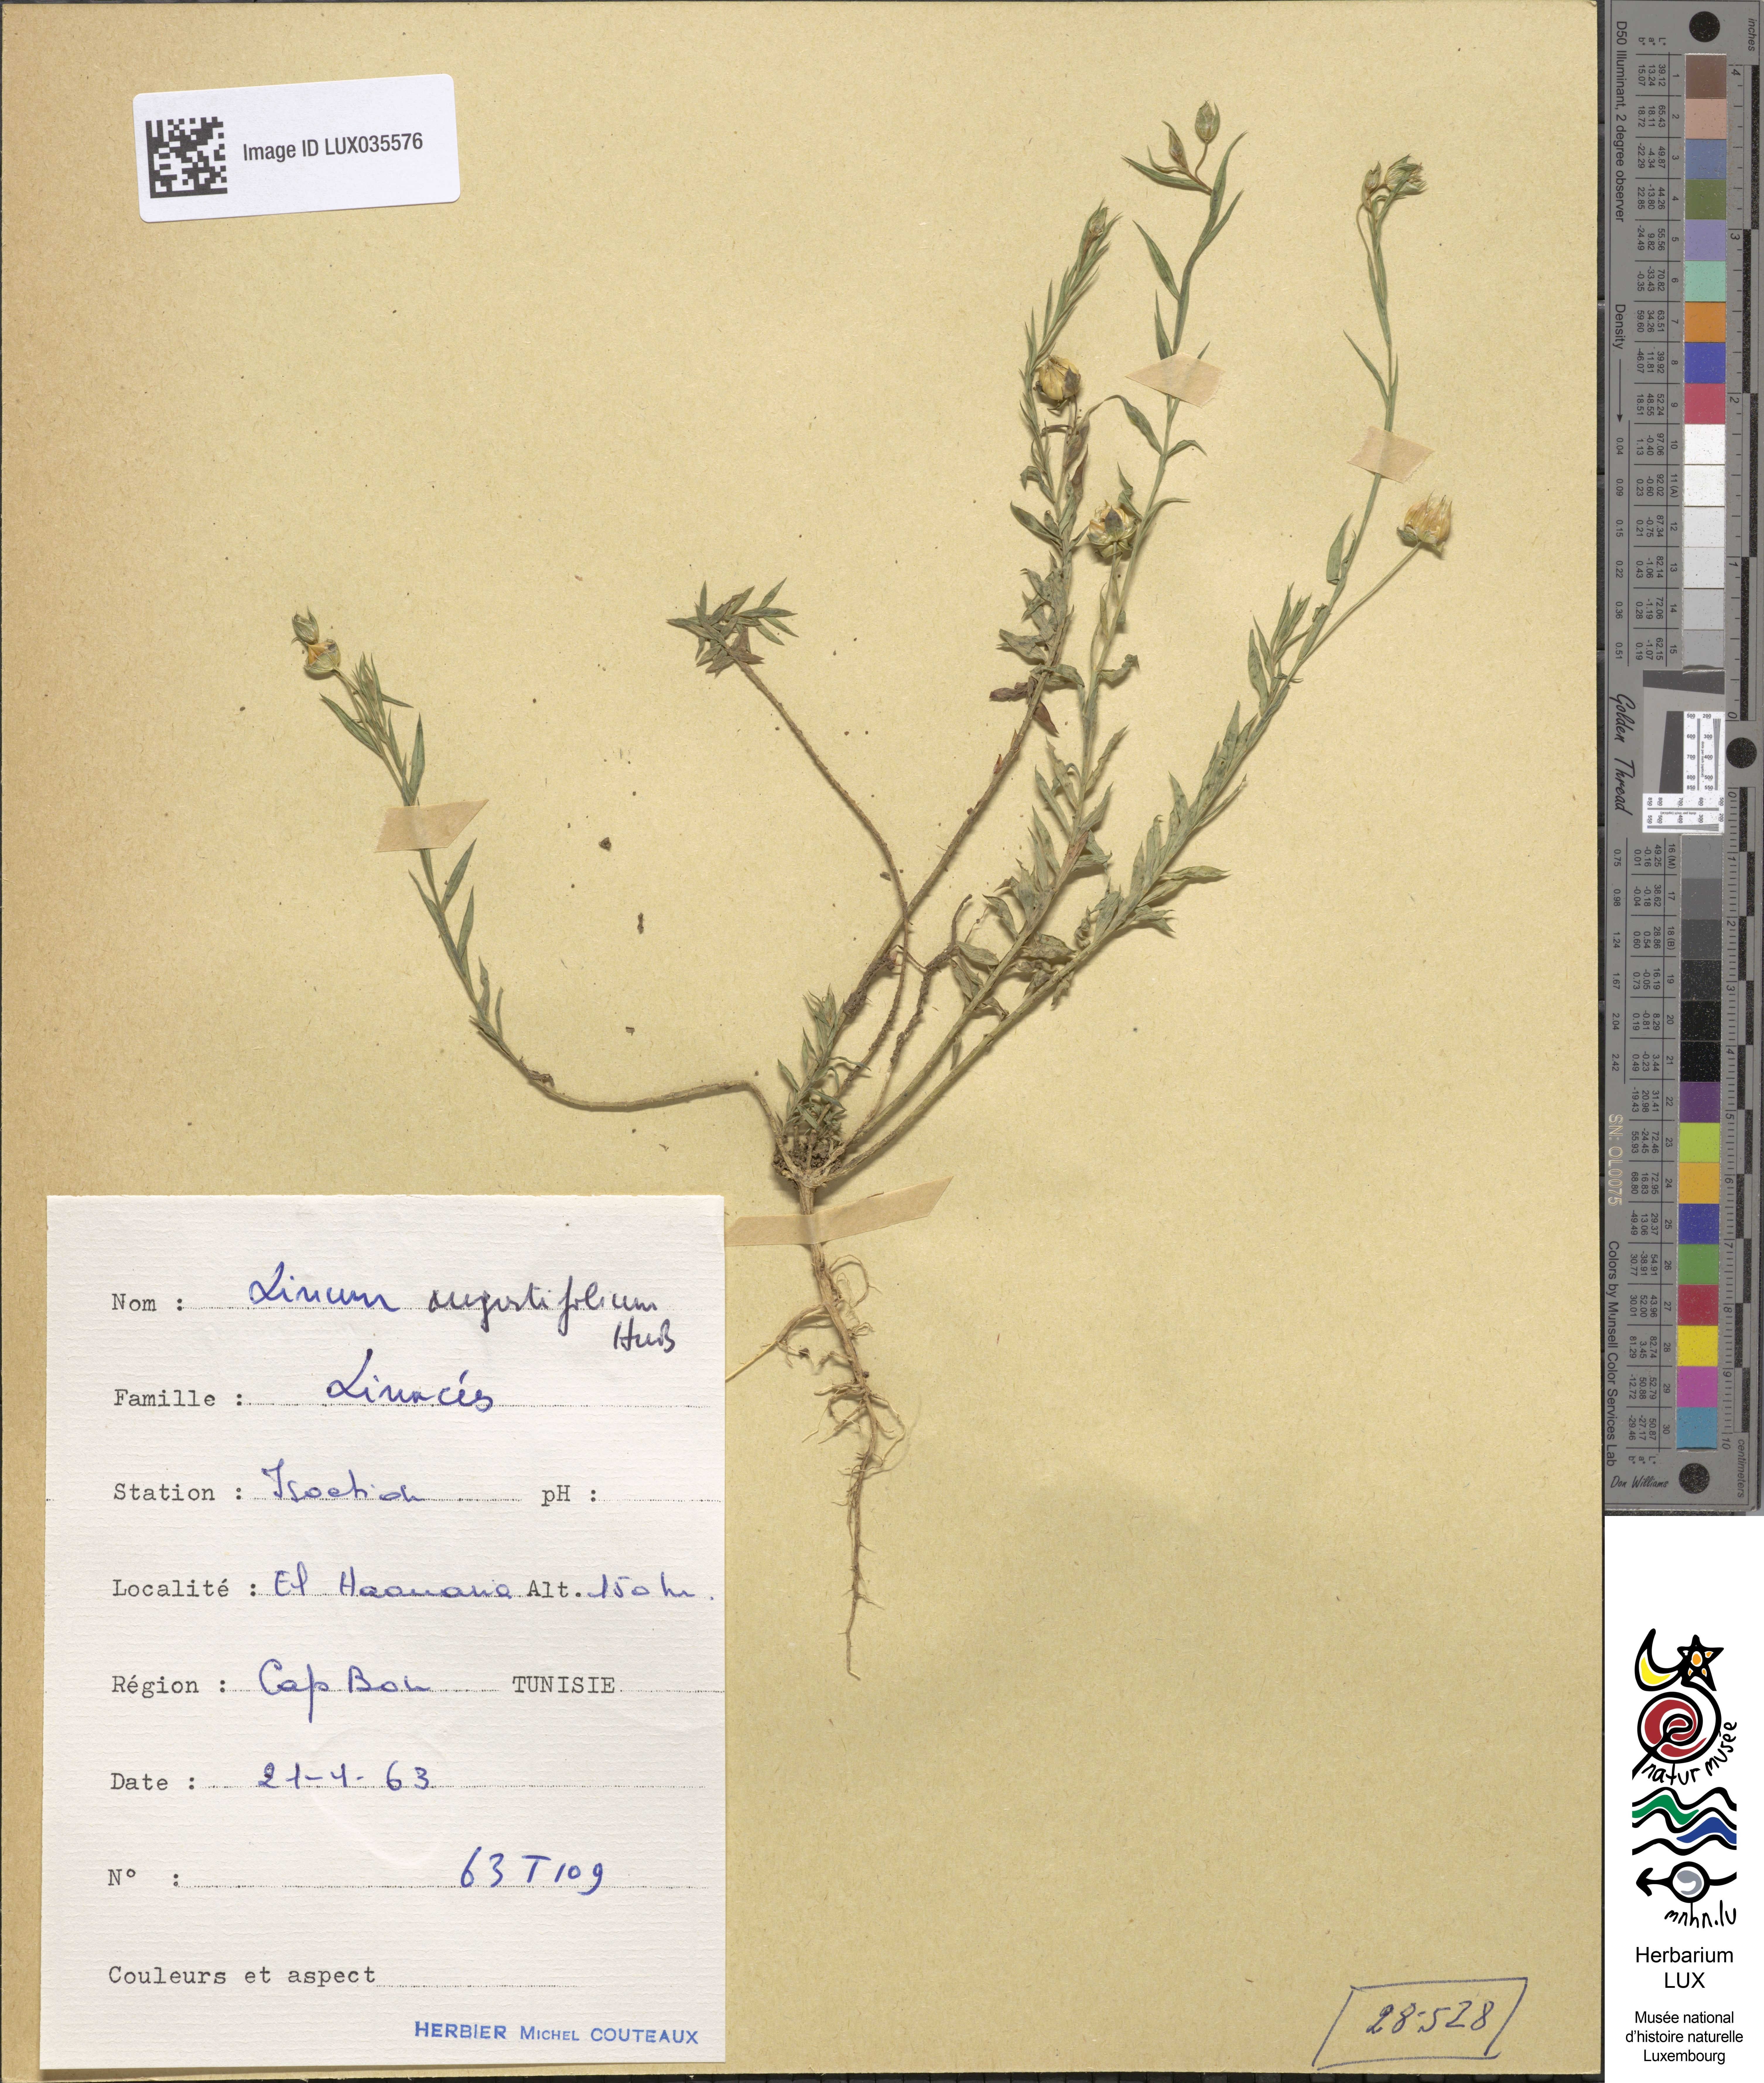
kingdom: Plantae
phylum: Tracheophyta
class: Magnoliopsida
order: Malpighiales
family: Linaceae
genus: Linum
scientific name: Linum bienne
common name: Pale flax
